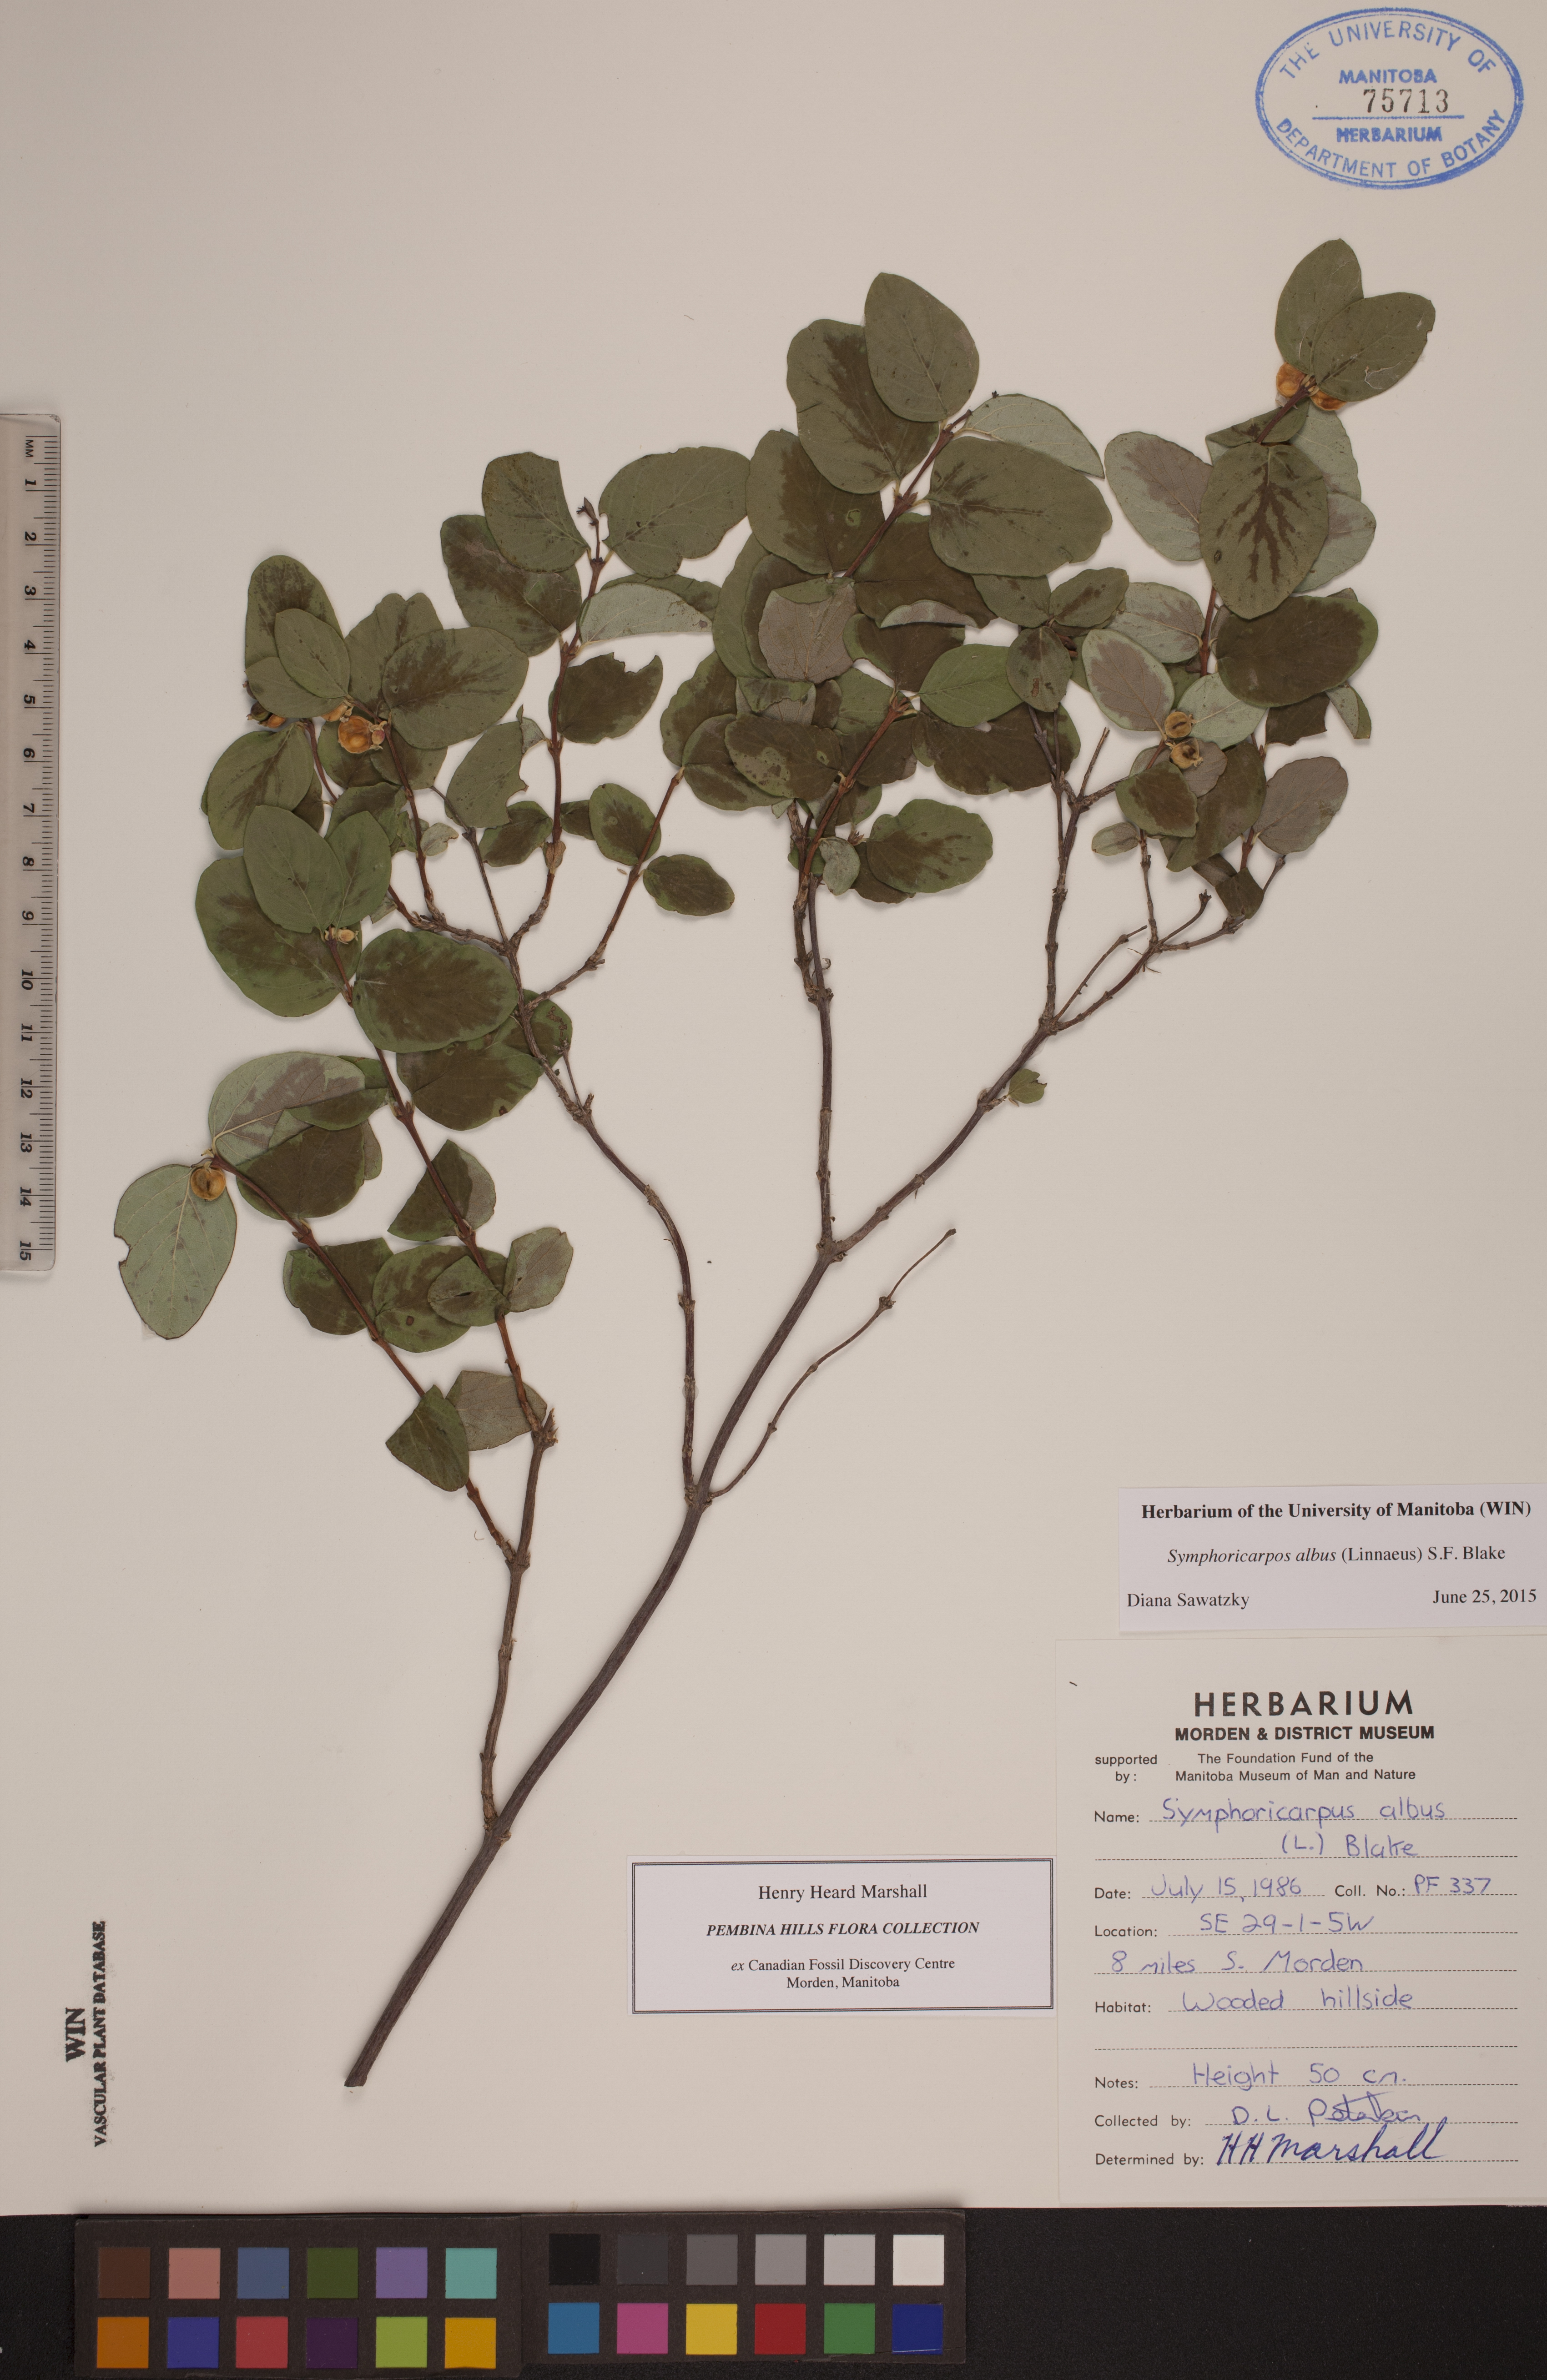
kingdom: Plantae
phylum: Tracheophyta
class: Magnoliopsida
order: Dipsacales
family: Caprifoliaceae
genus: Symphoricarpos
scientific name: Symphoricarpos albus
